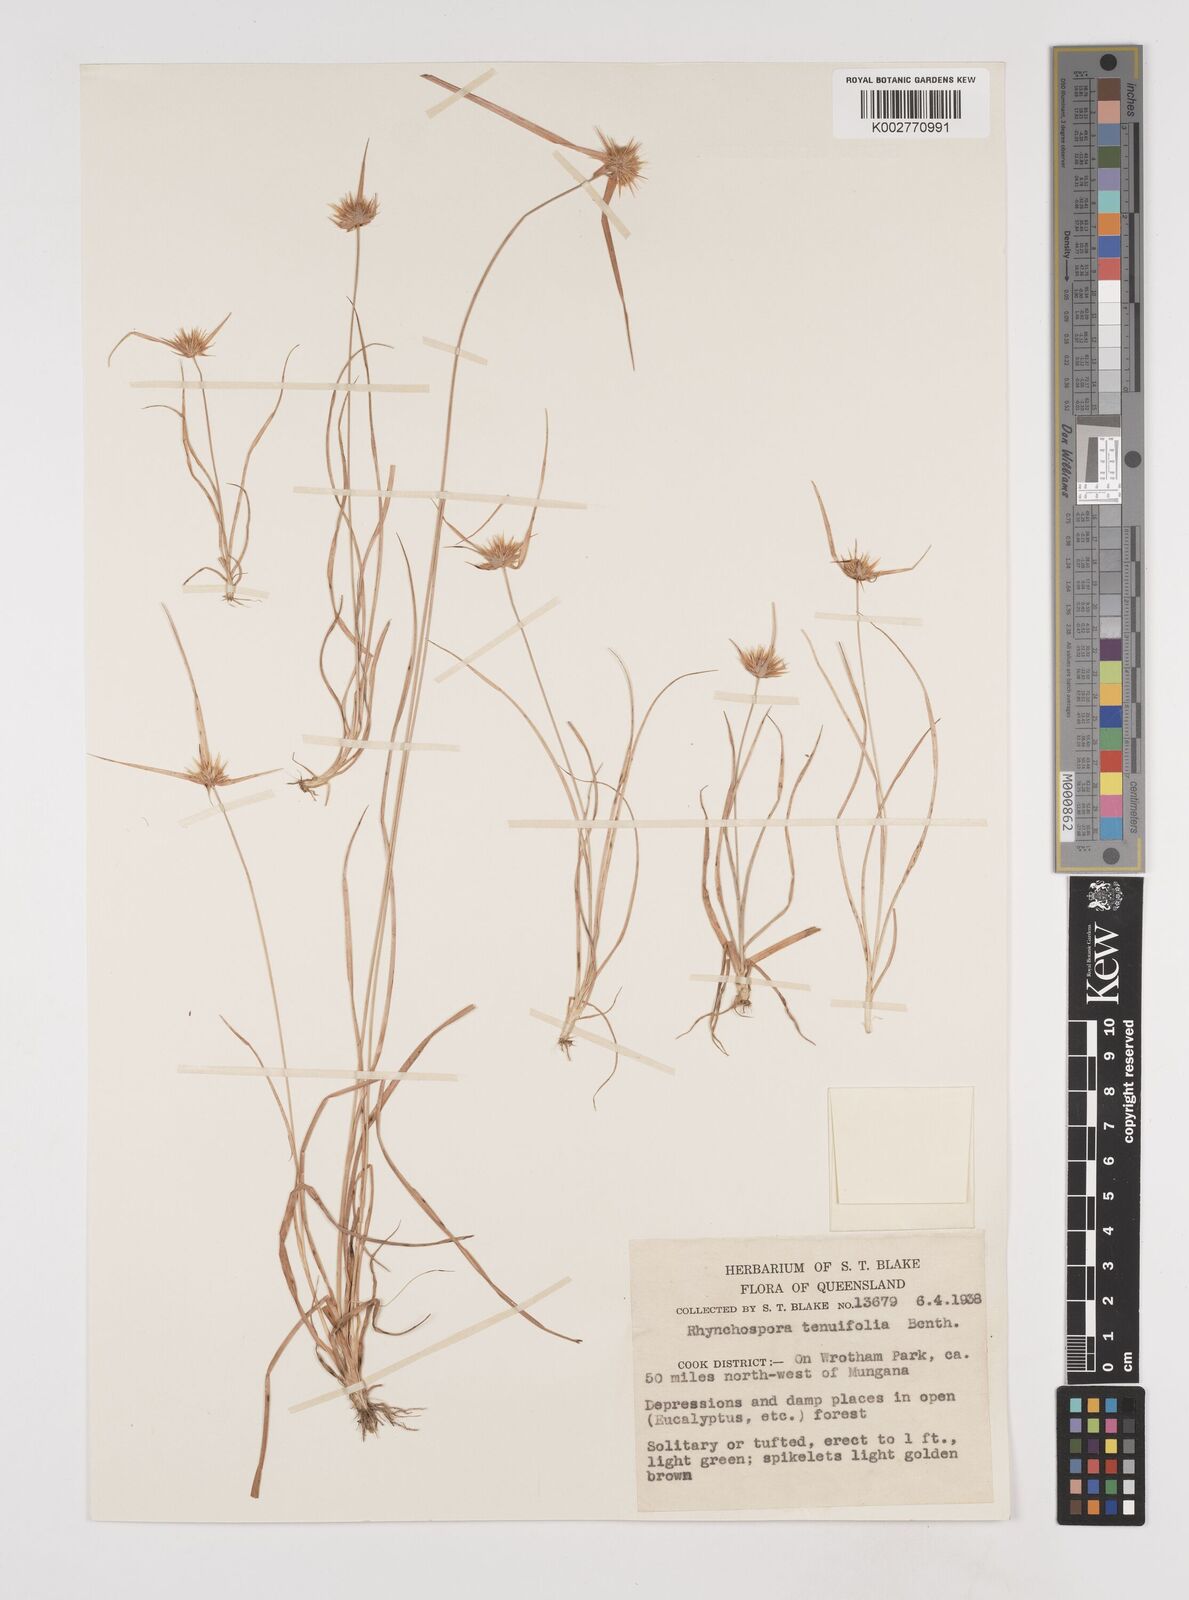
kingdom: Plantae
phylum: Tracheophyta
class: Liliopsida
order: Poales
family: Cyperaceae
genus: Rhynchospora
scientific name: Rhynchospora subtenuifolia
